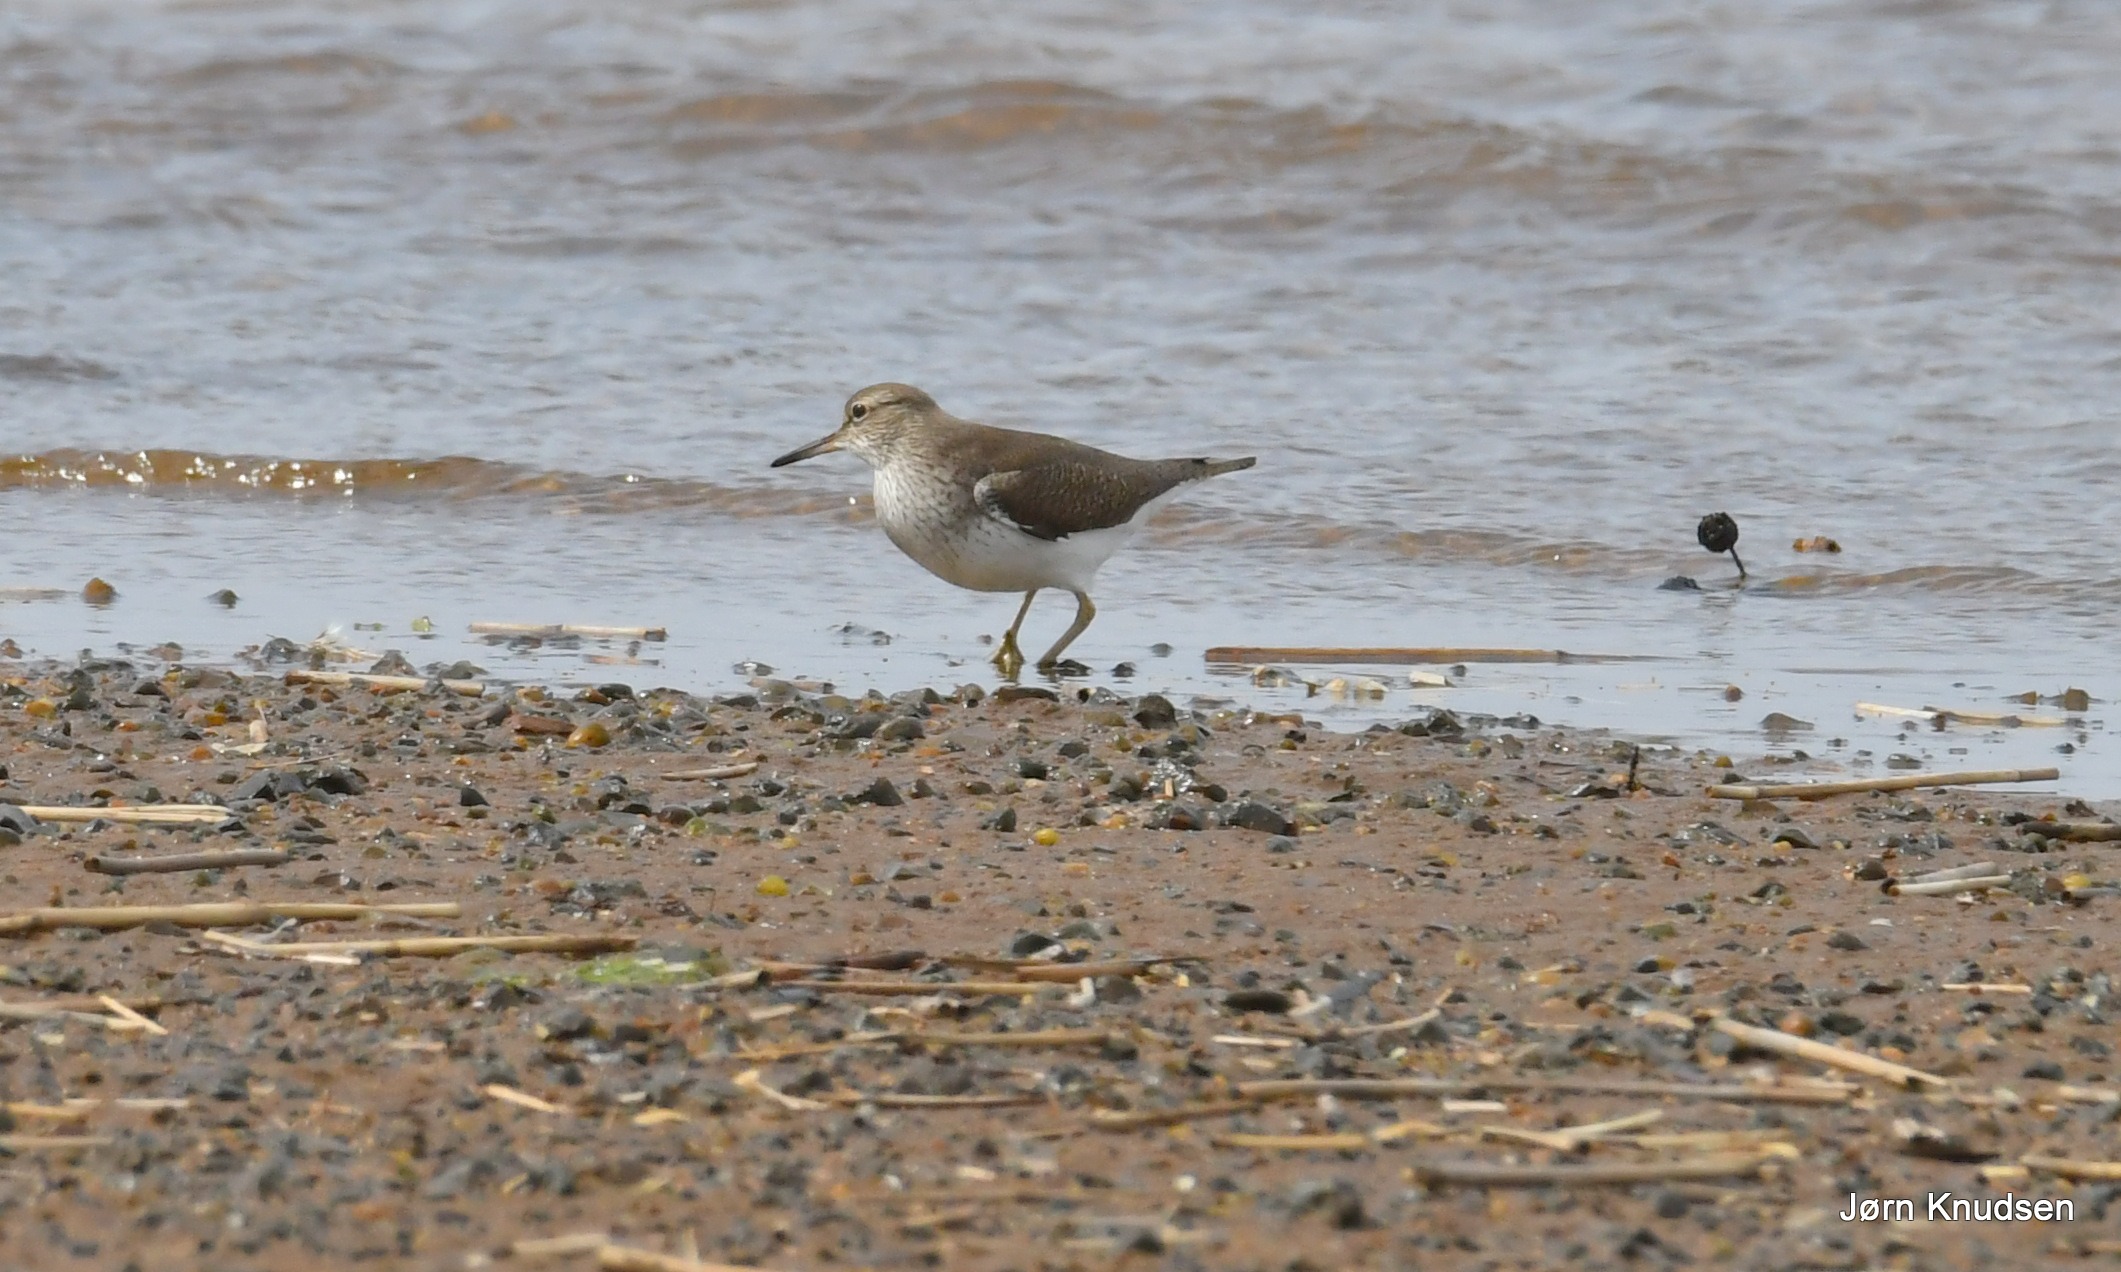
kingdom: Animalia
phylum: Chordata
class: Aves
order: Charadriiformes
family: Scolopacidae
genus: Actitis
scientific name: Actitis hypoleucos
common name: Mudderklire
